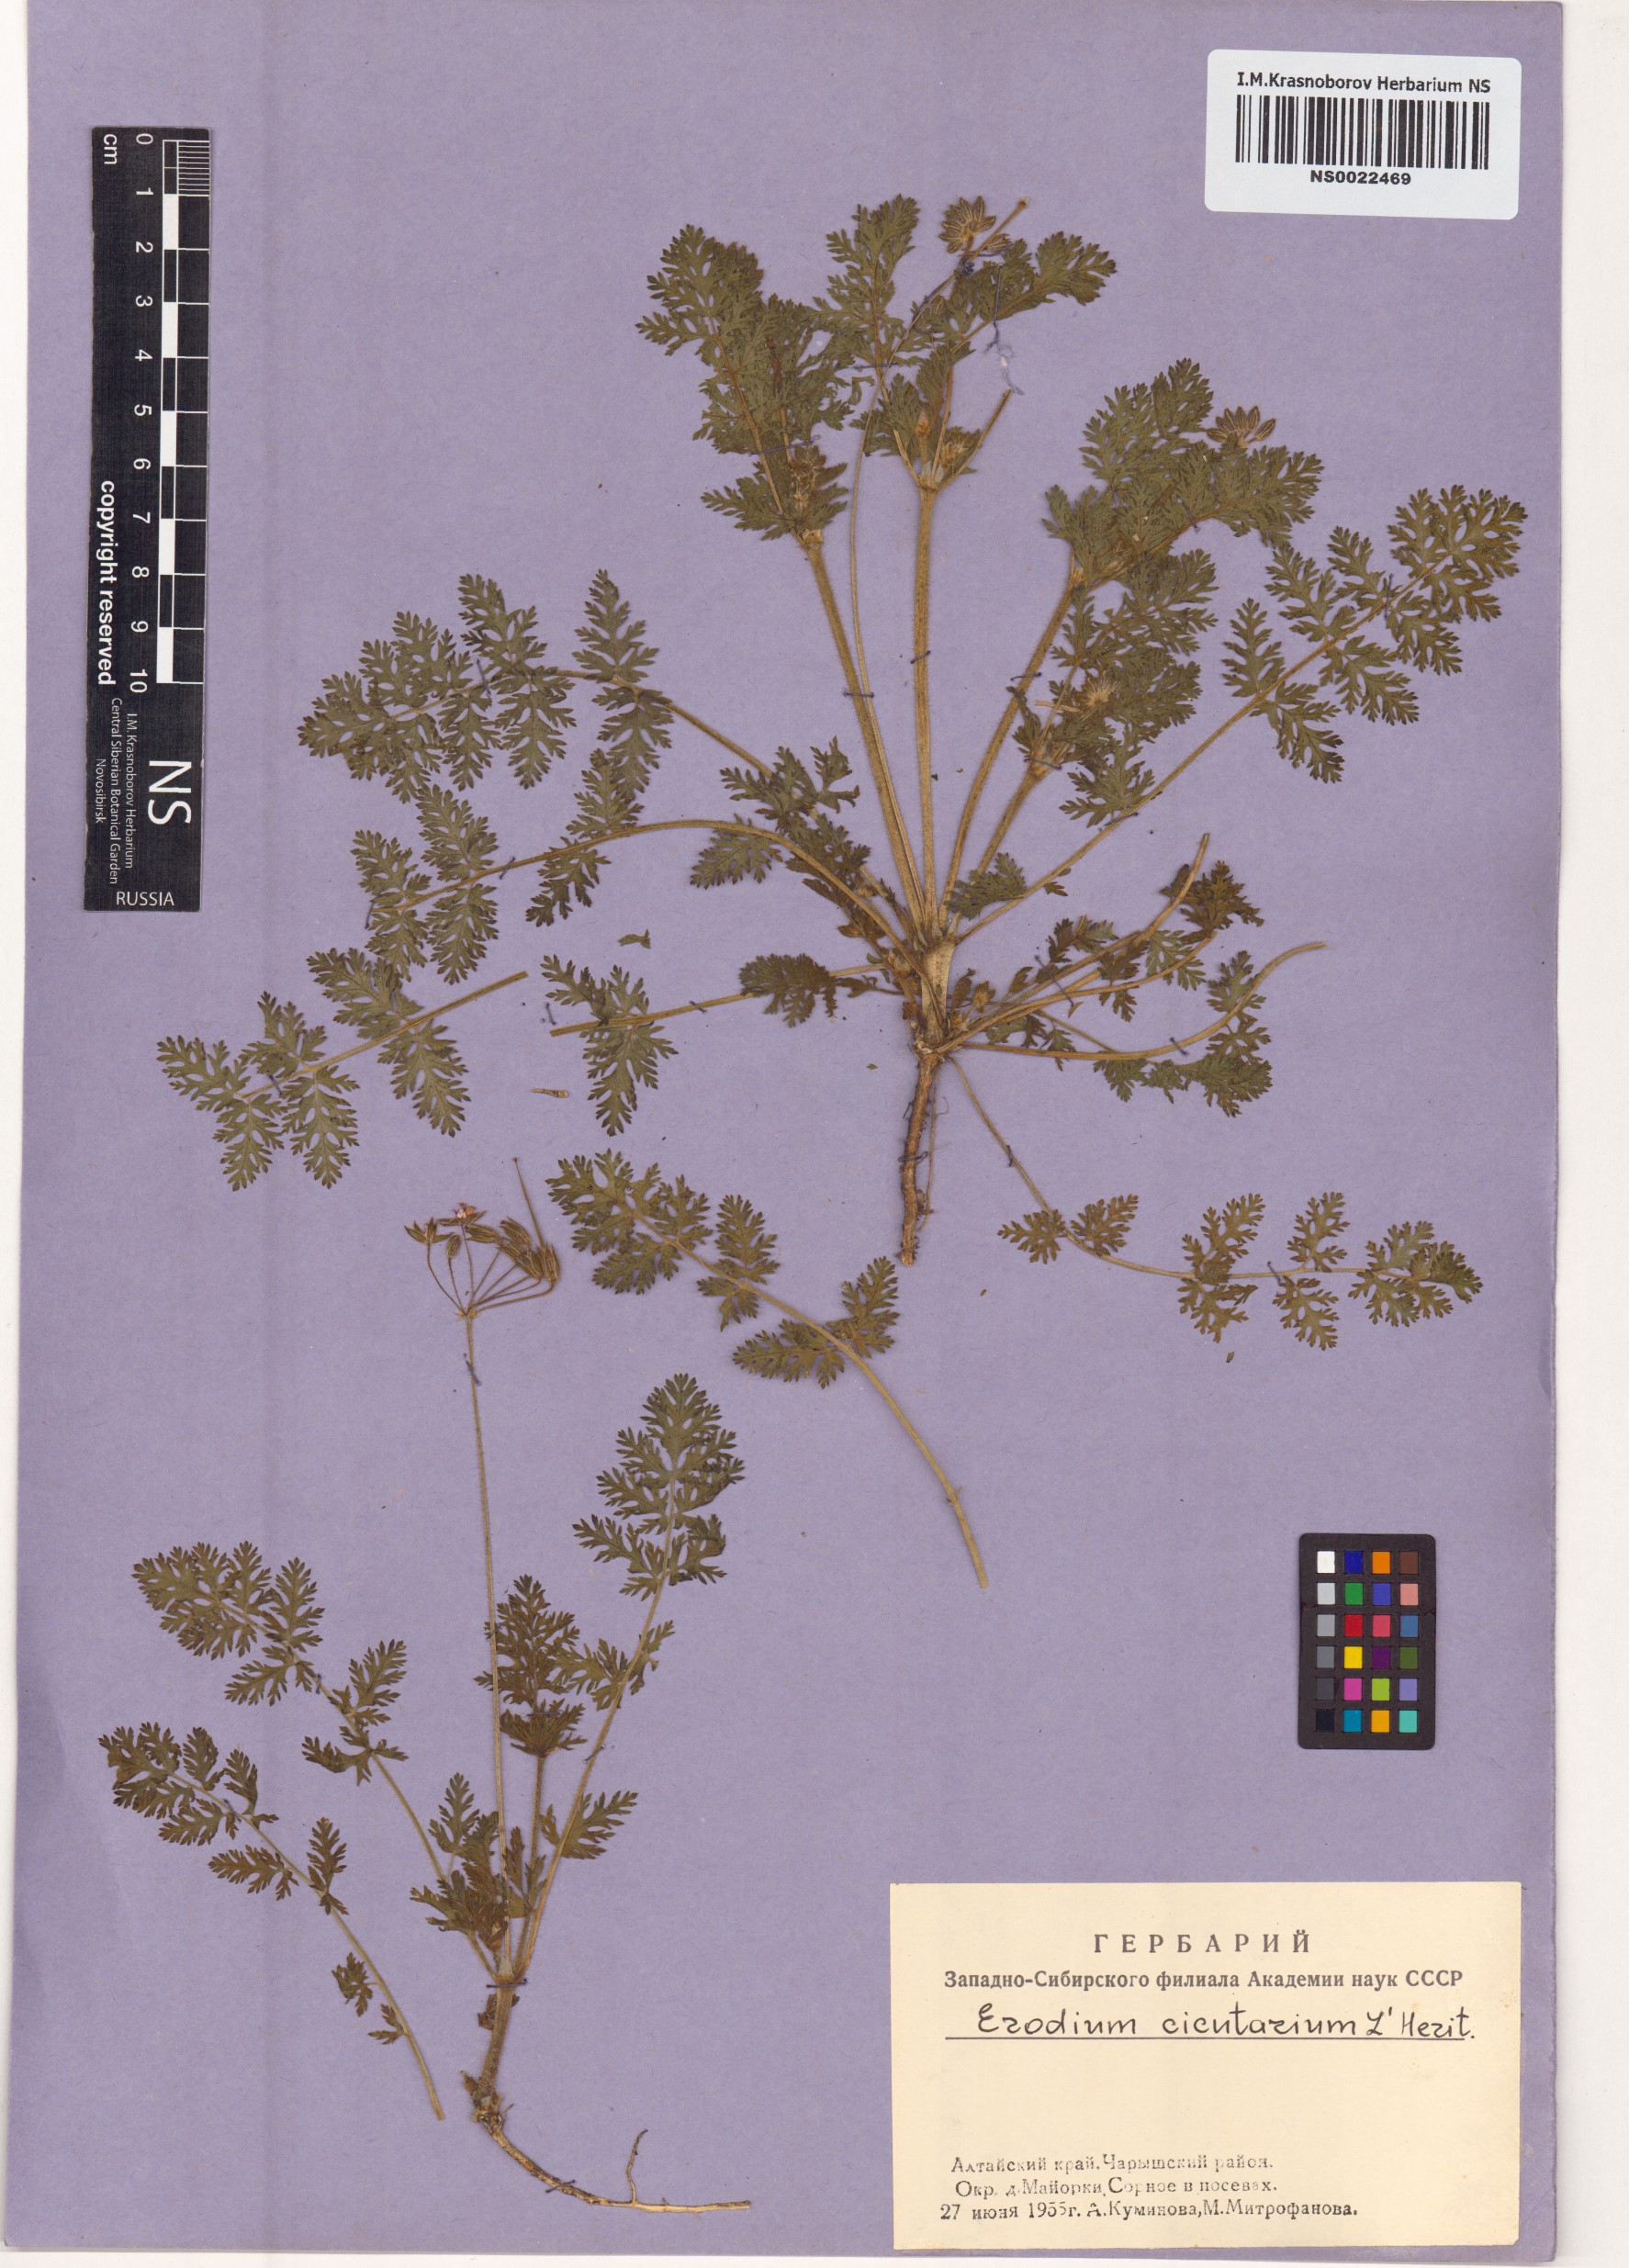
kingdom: Plantae
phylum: Tracheophyta
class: Magnoliopsida
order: Geraniales
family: Geraniaceae
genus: Erodium
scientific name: Erodium cicutarium
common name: Common stork's-bill
